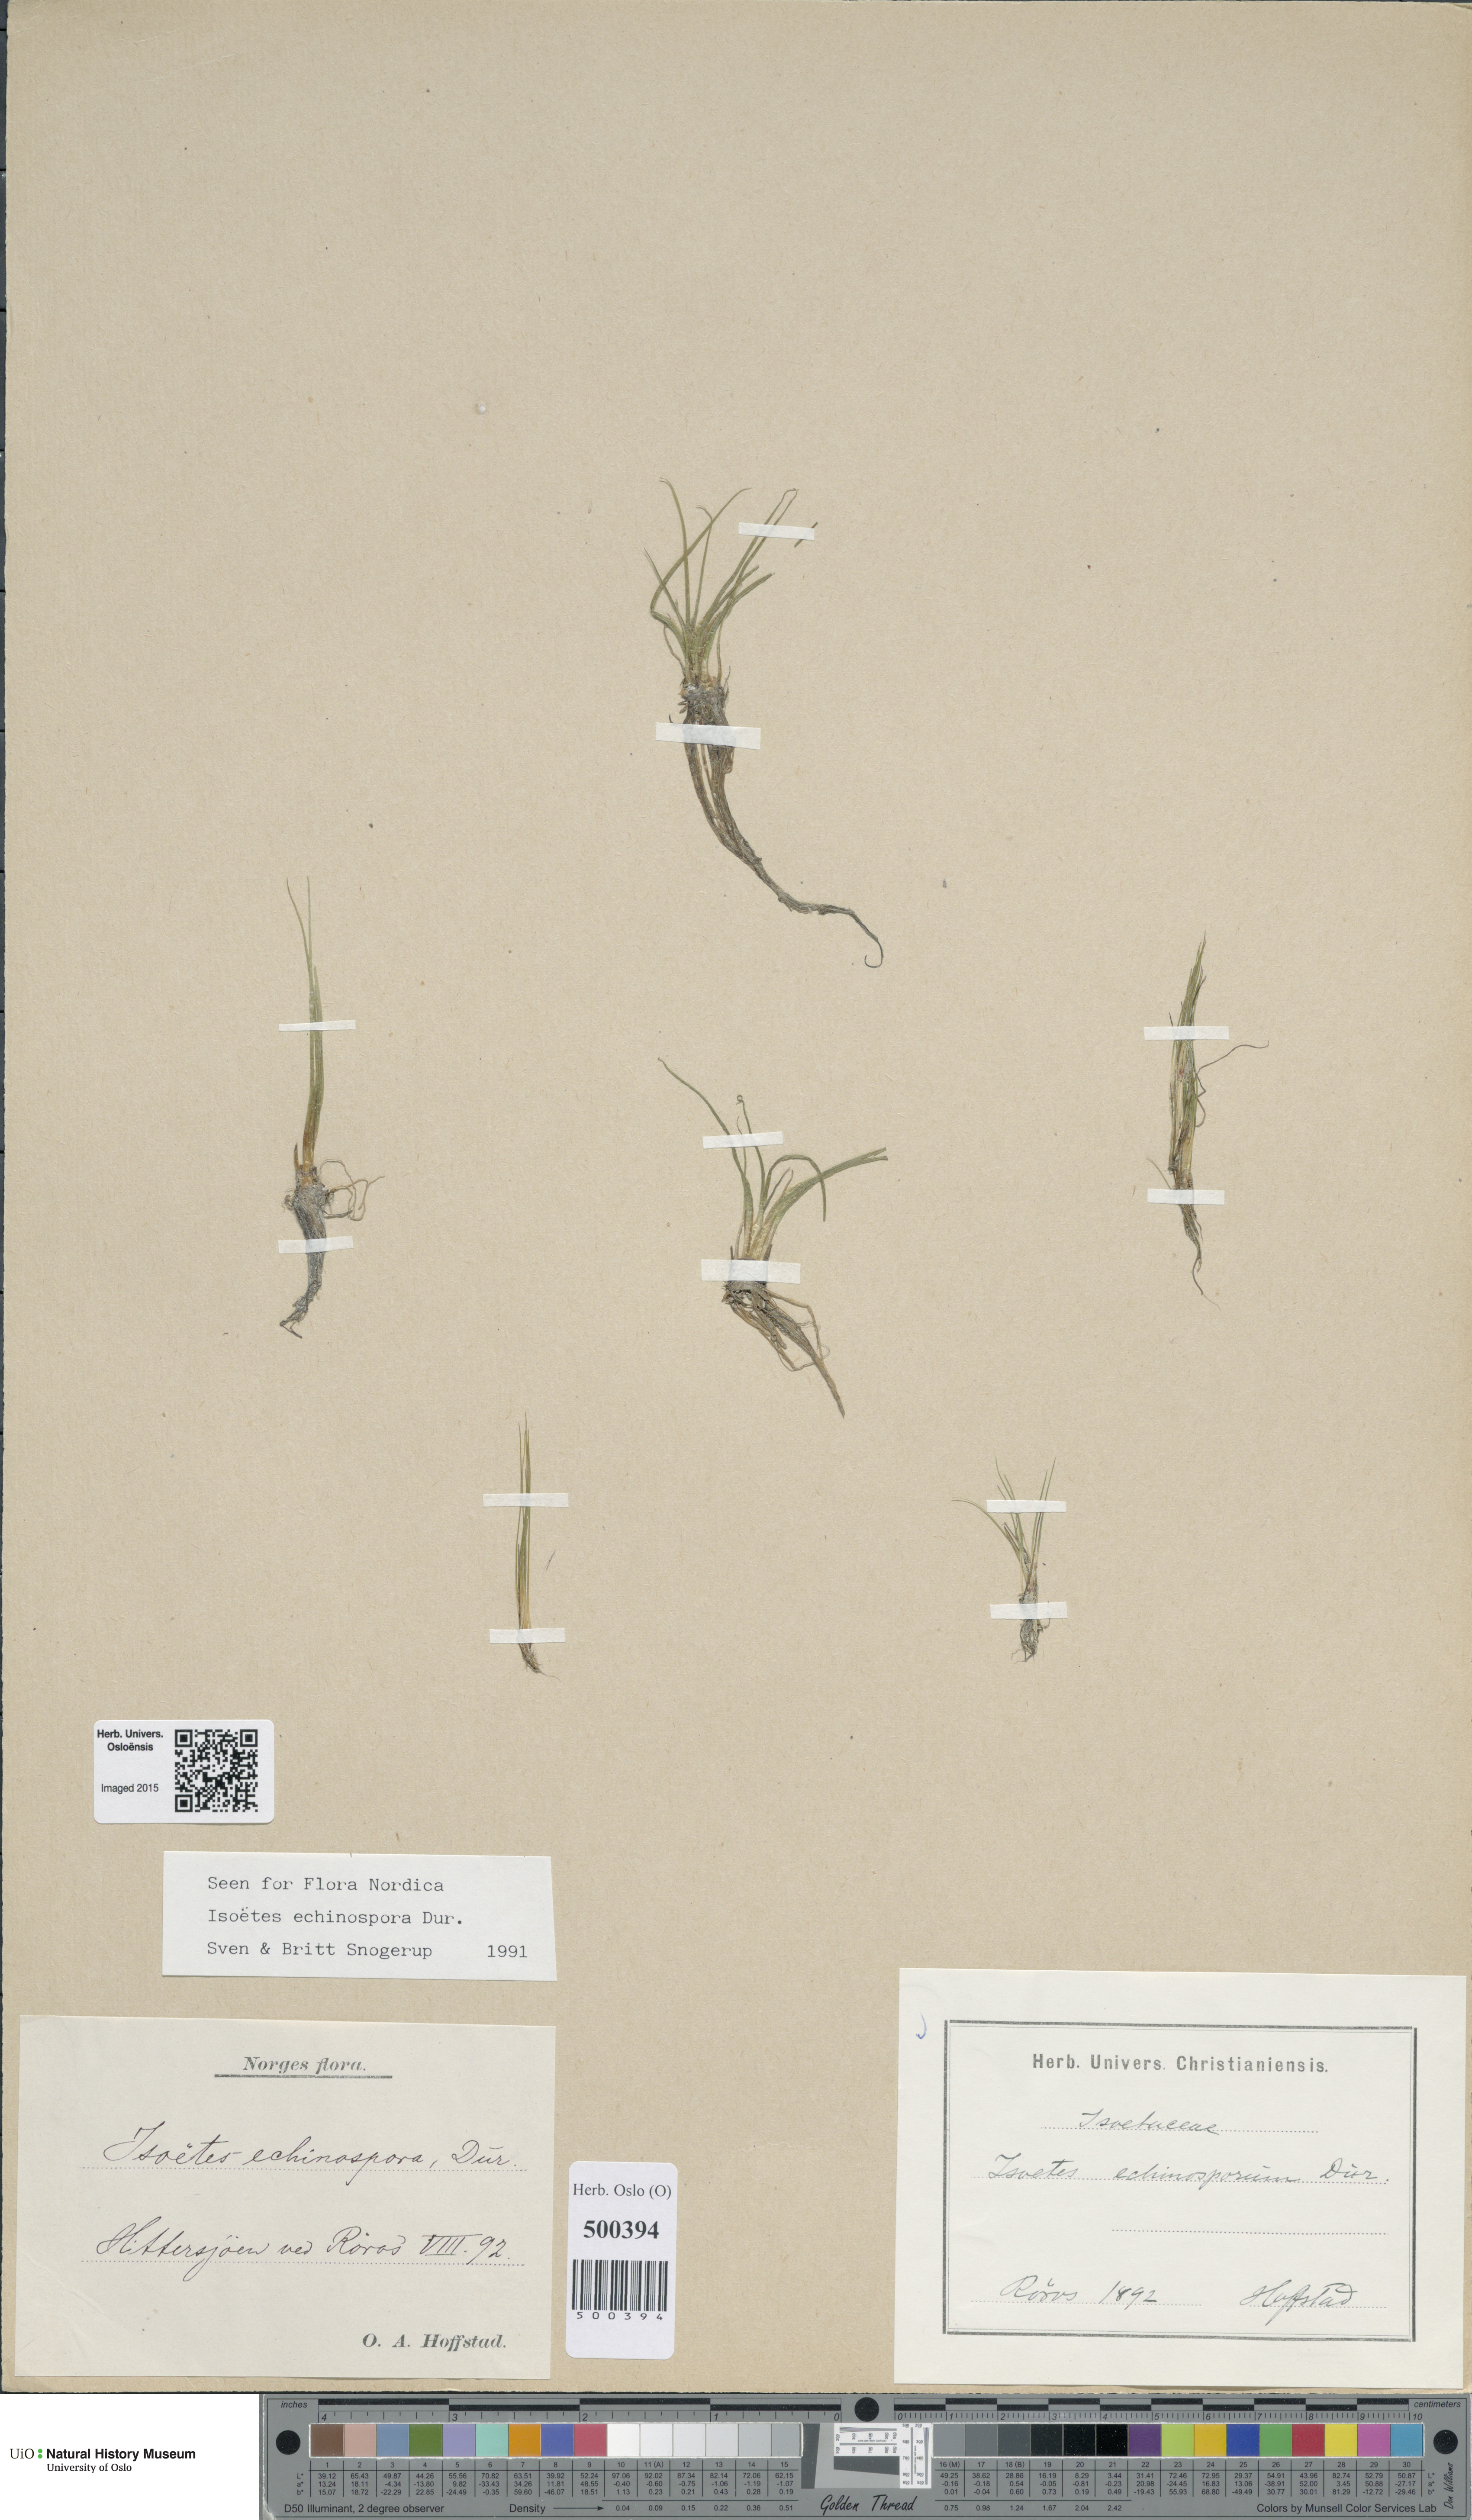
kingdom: Plantae
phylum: Tracheophyta
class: Lycopodiopsida
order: Isoetales
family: Isoetaceae
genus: Isoetes
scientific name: Isoetes echinospora
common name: Spring quillwort
